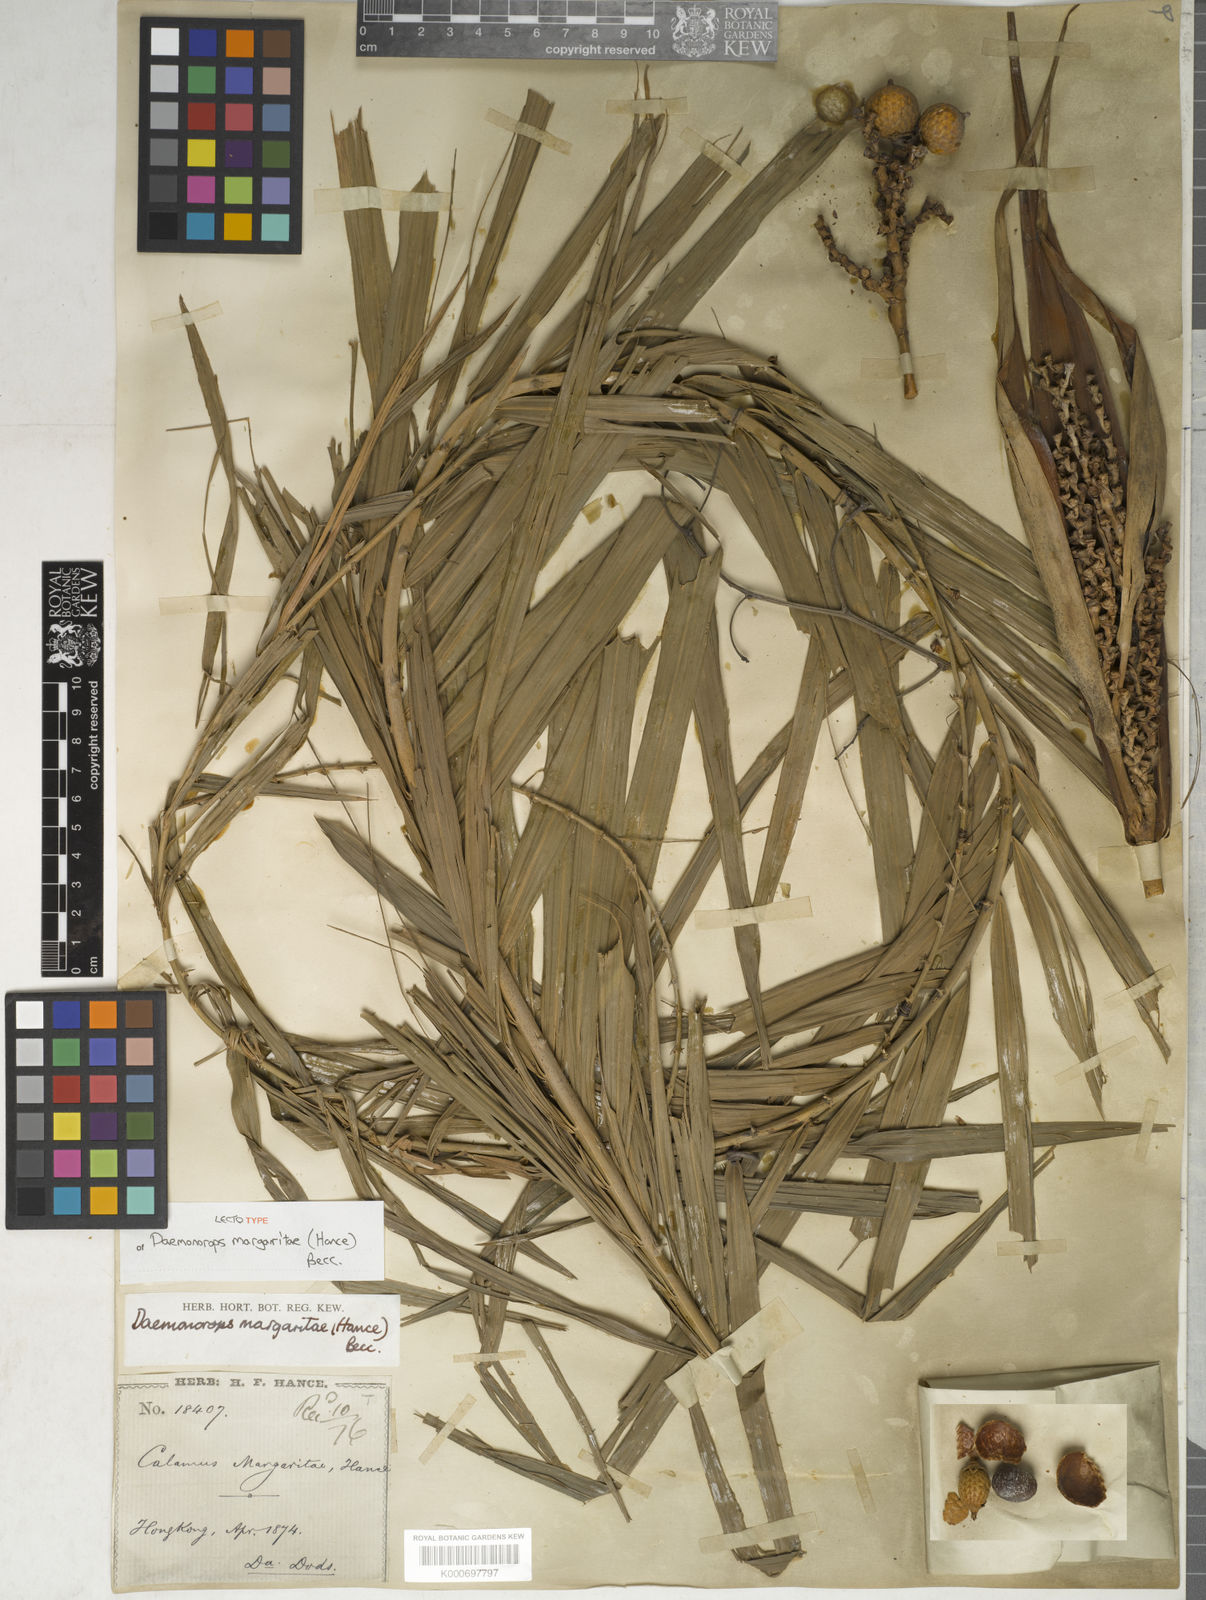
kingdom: Plantae
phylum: Tracheophyta
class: Liliopsida
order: Arecales
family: Arecaceae
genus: Calamus
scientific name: Calamus melanochaetes
